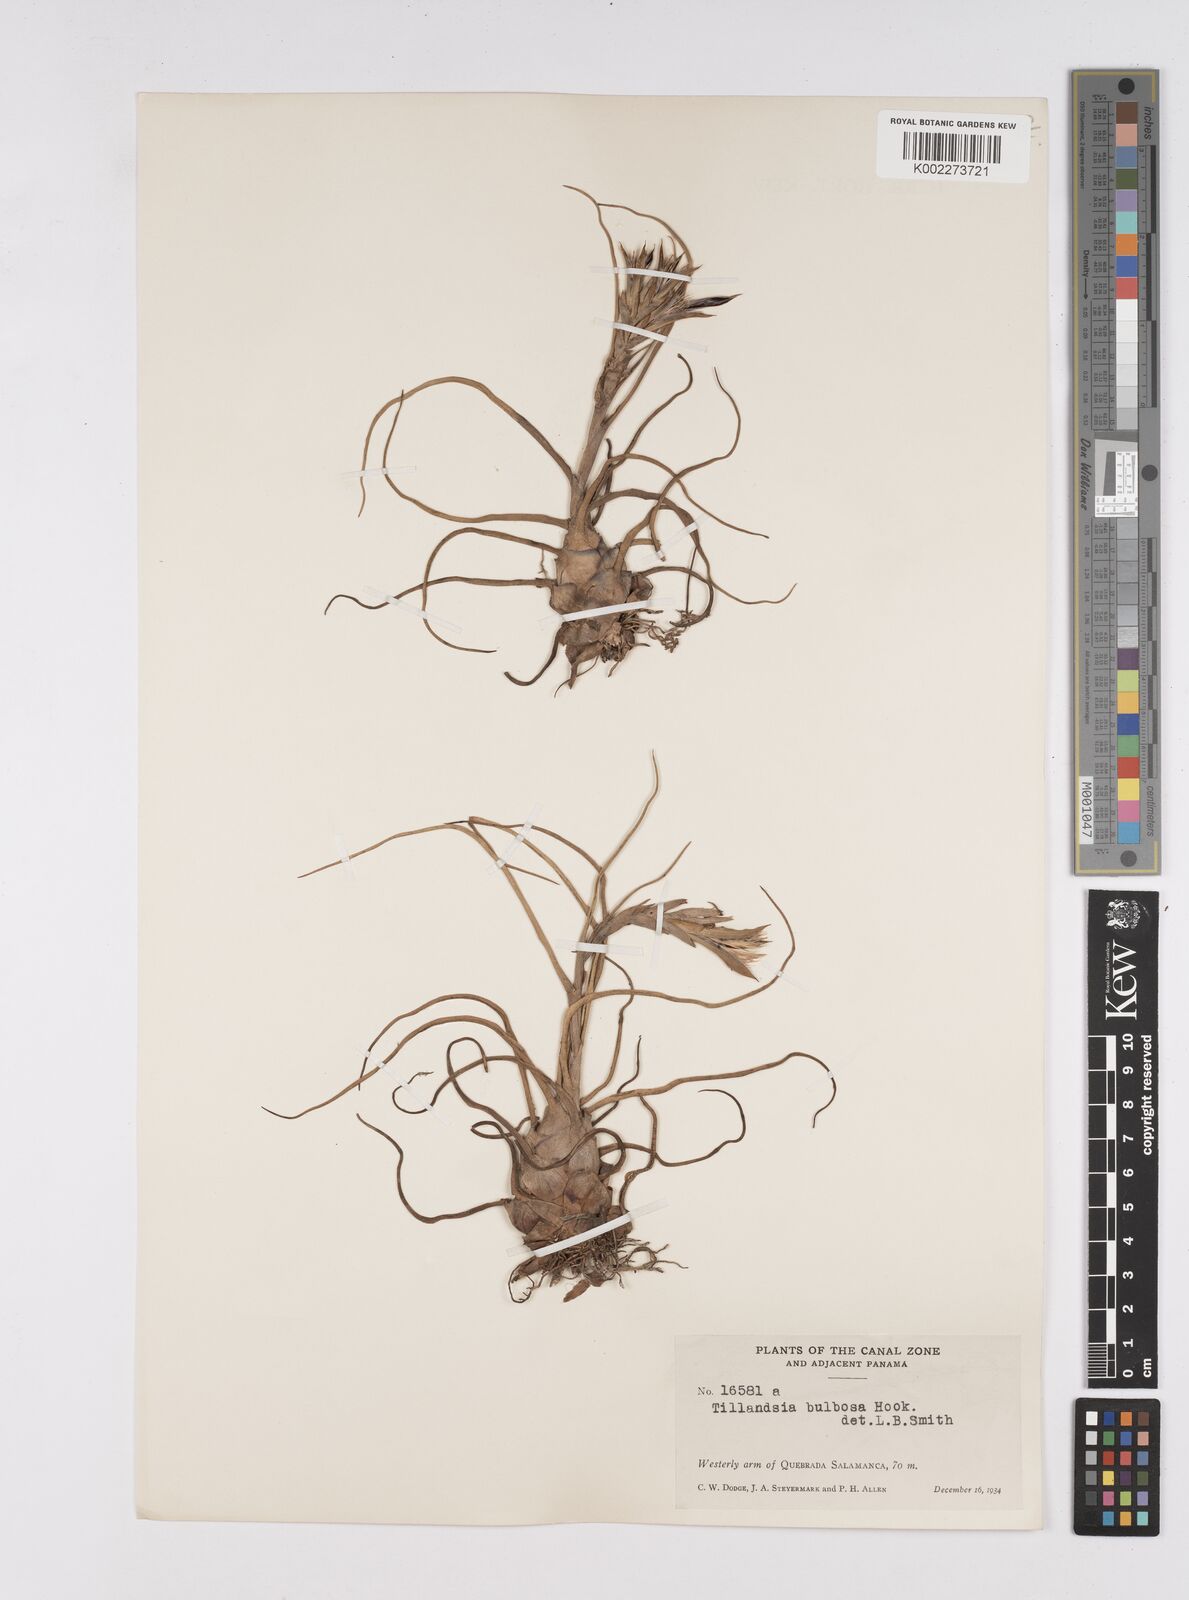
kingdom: Plantae
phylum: Tracheophyta
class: Liliopsida
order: Poales
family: Bromeliaceae
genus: Tillandsia
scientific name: Tillandsia bulbosa
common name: Bulbous airplant
